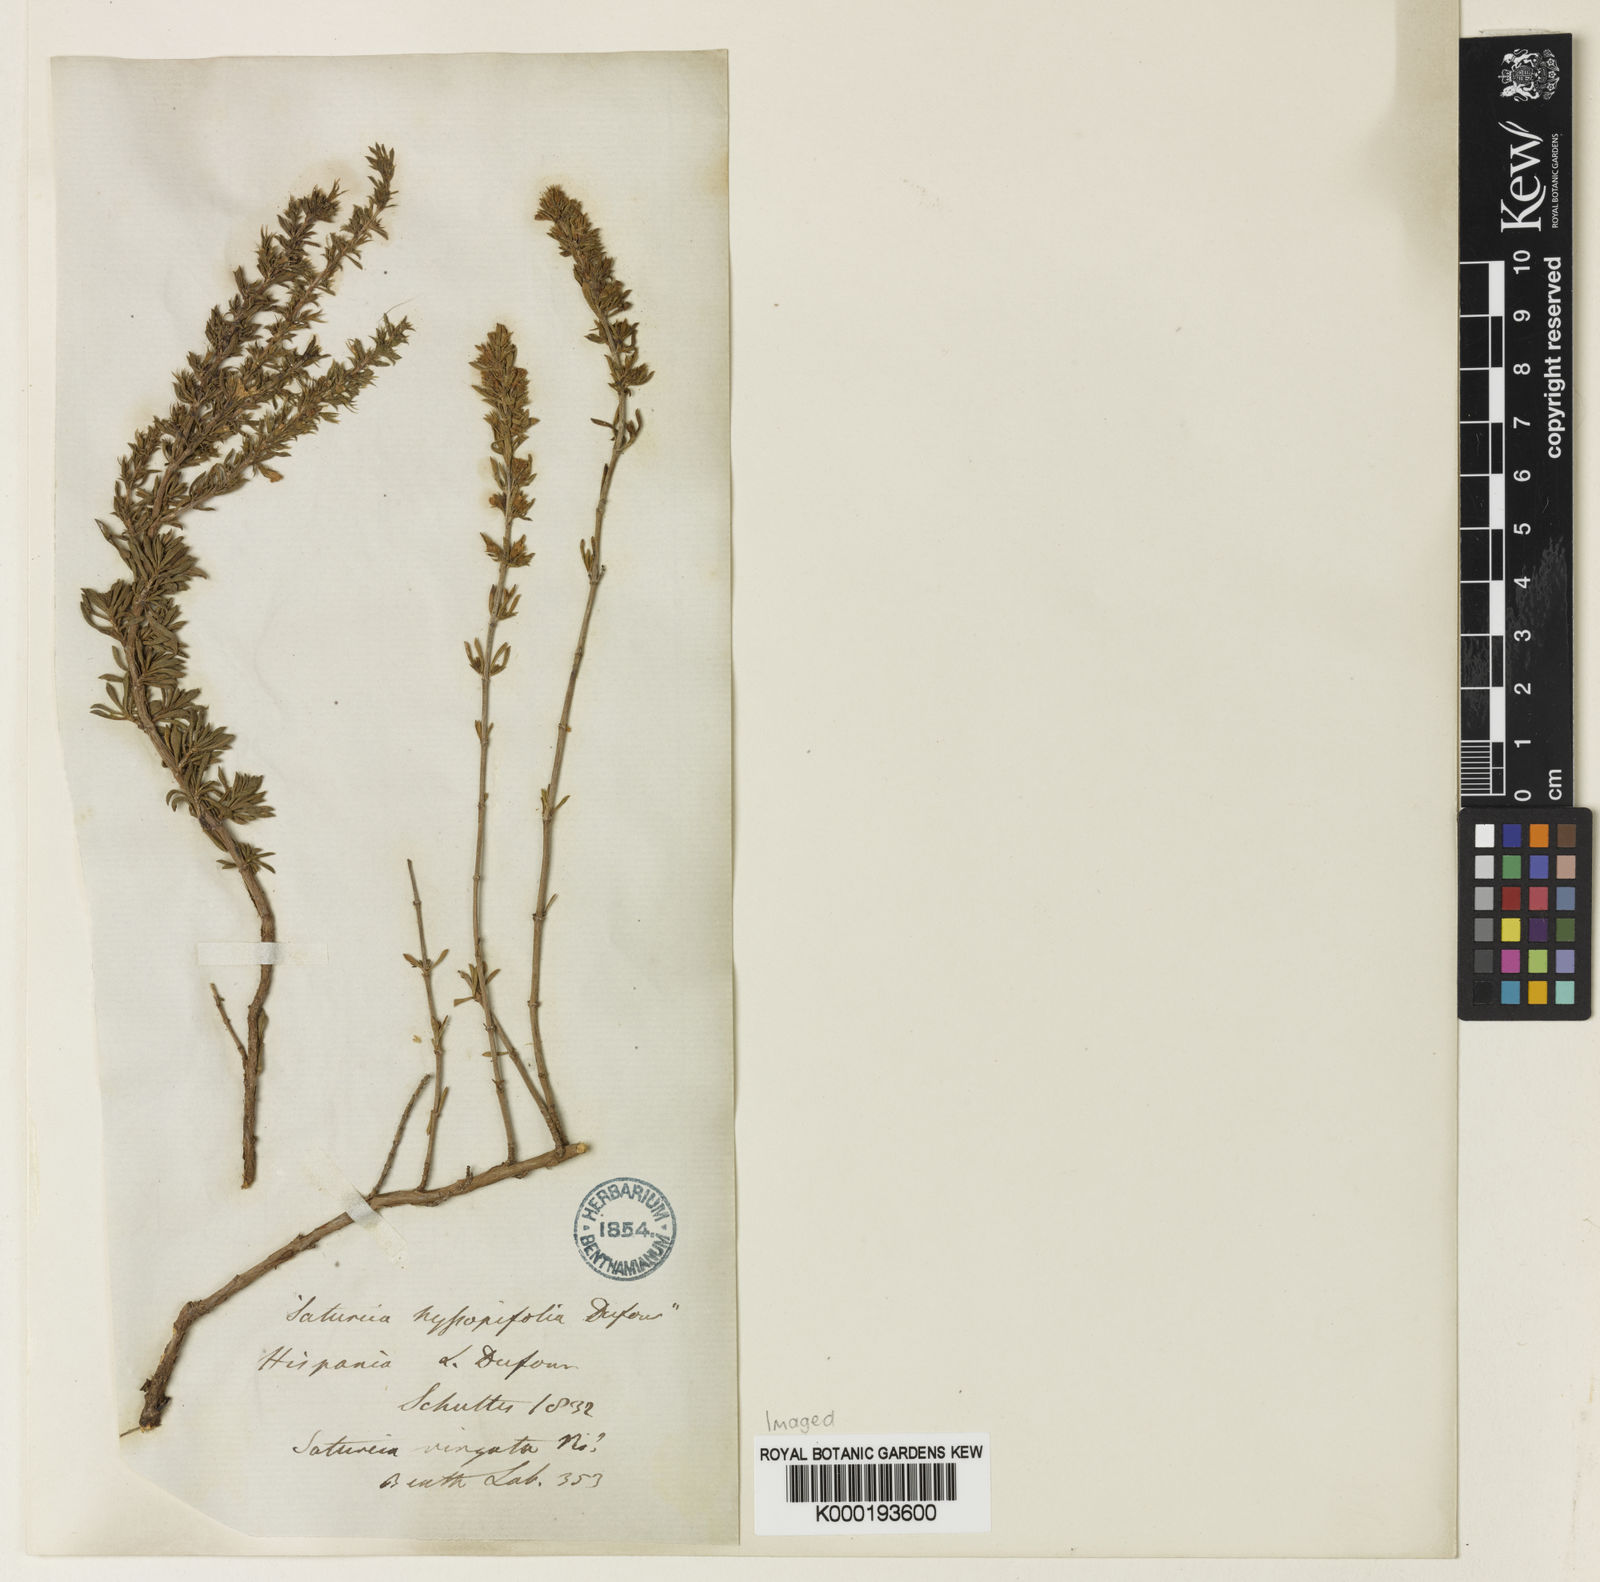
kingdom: Plantae
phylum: Tracheophyta
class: Magnoliopsida
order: Lamiales
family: Lamiaceae
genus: Satureja
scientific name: Satureja
